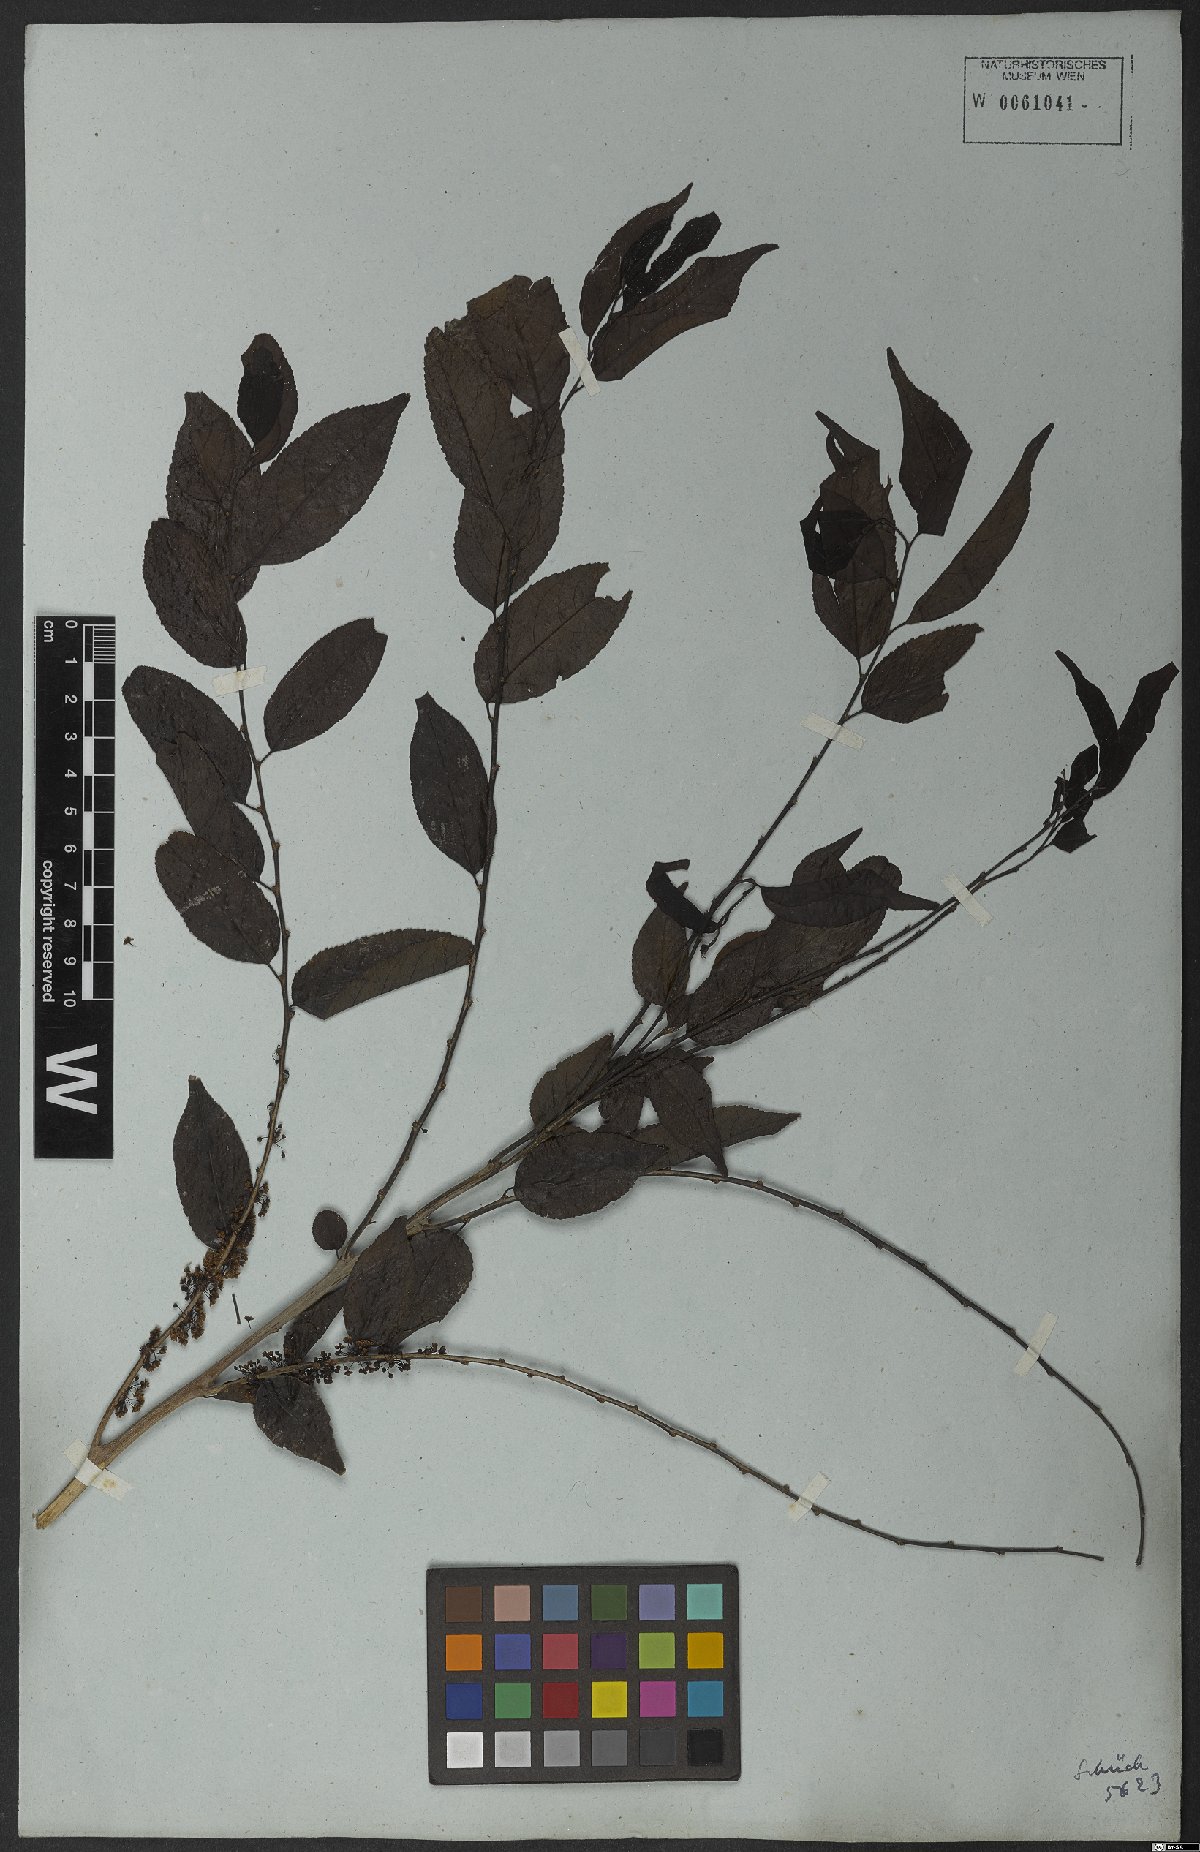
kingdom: Plantae
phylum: Tracheophyta
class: Magnoliopsida
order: Malpighiales
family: Salicaceae
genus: Casearia
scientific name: Casearia sylvestris
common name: Wild sage
